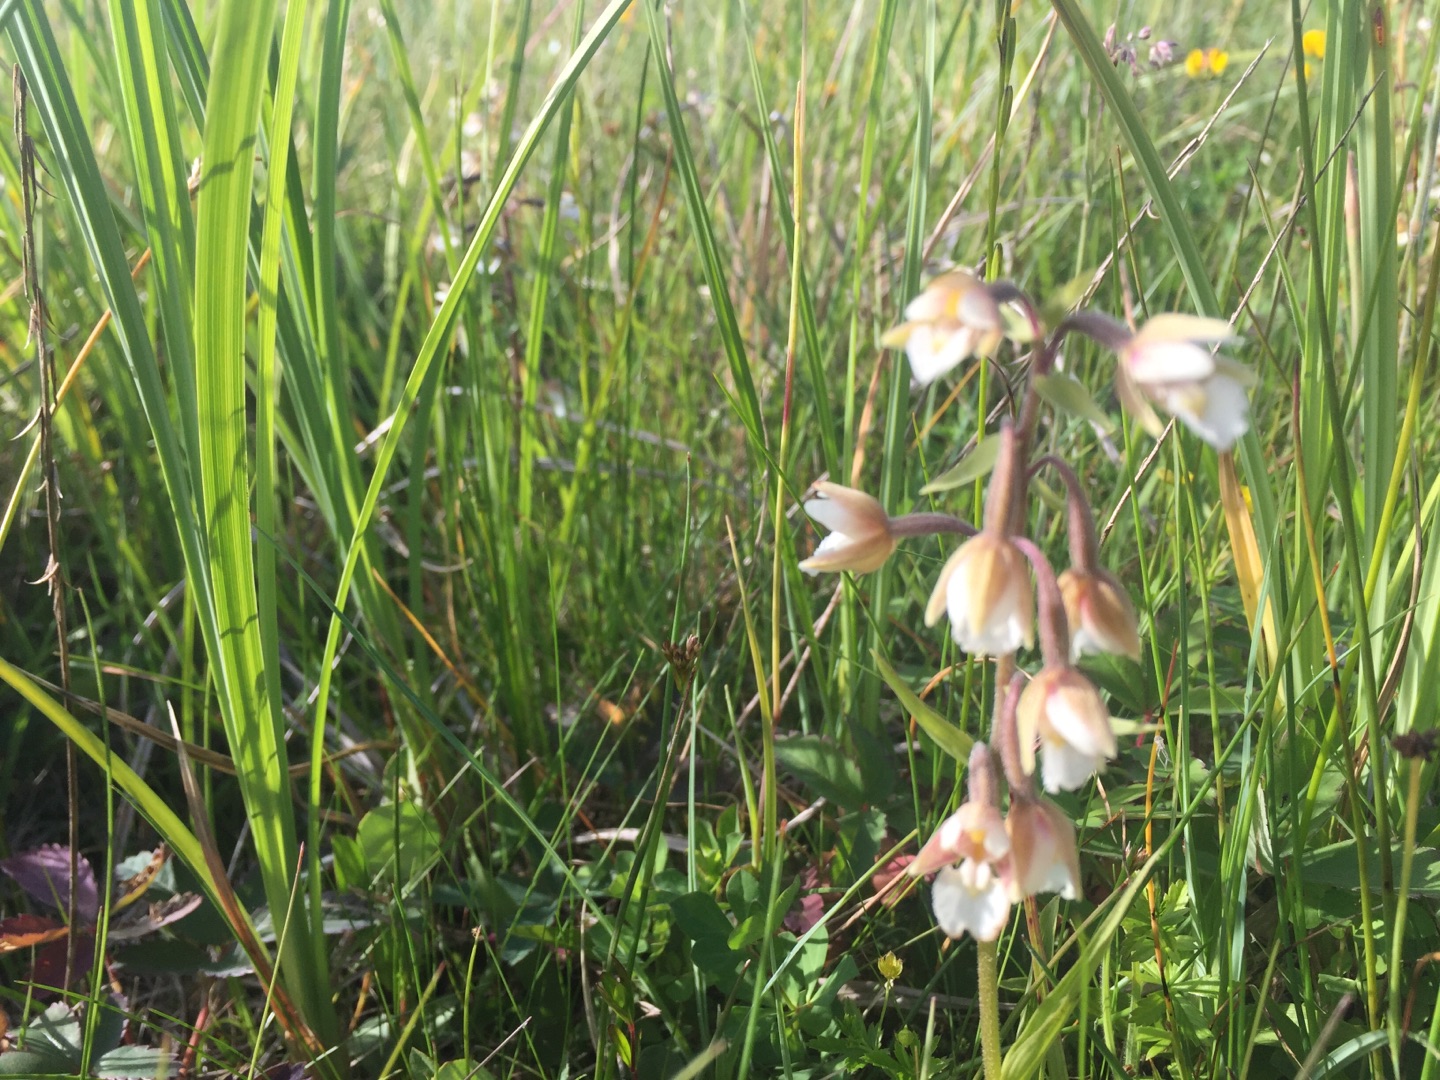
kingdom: Plantae
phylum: Tracheophyta
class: Liliopsida
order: Asparagales
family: Orchidaceae
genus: Epipactis
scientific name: Epipactis palustris
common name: Sump-hullæbe
